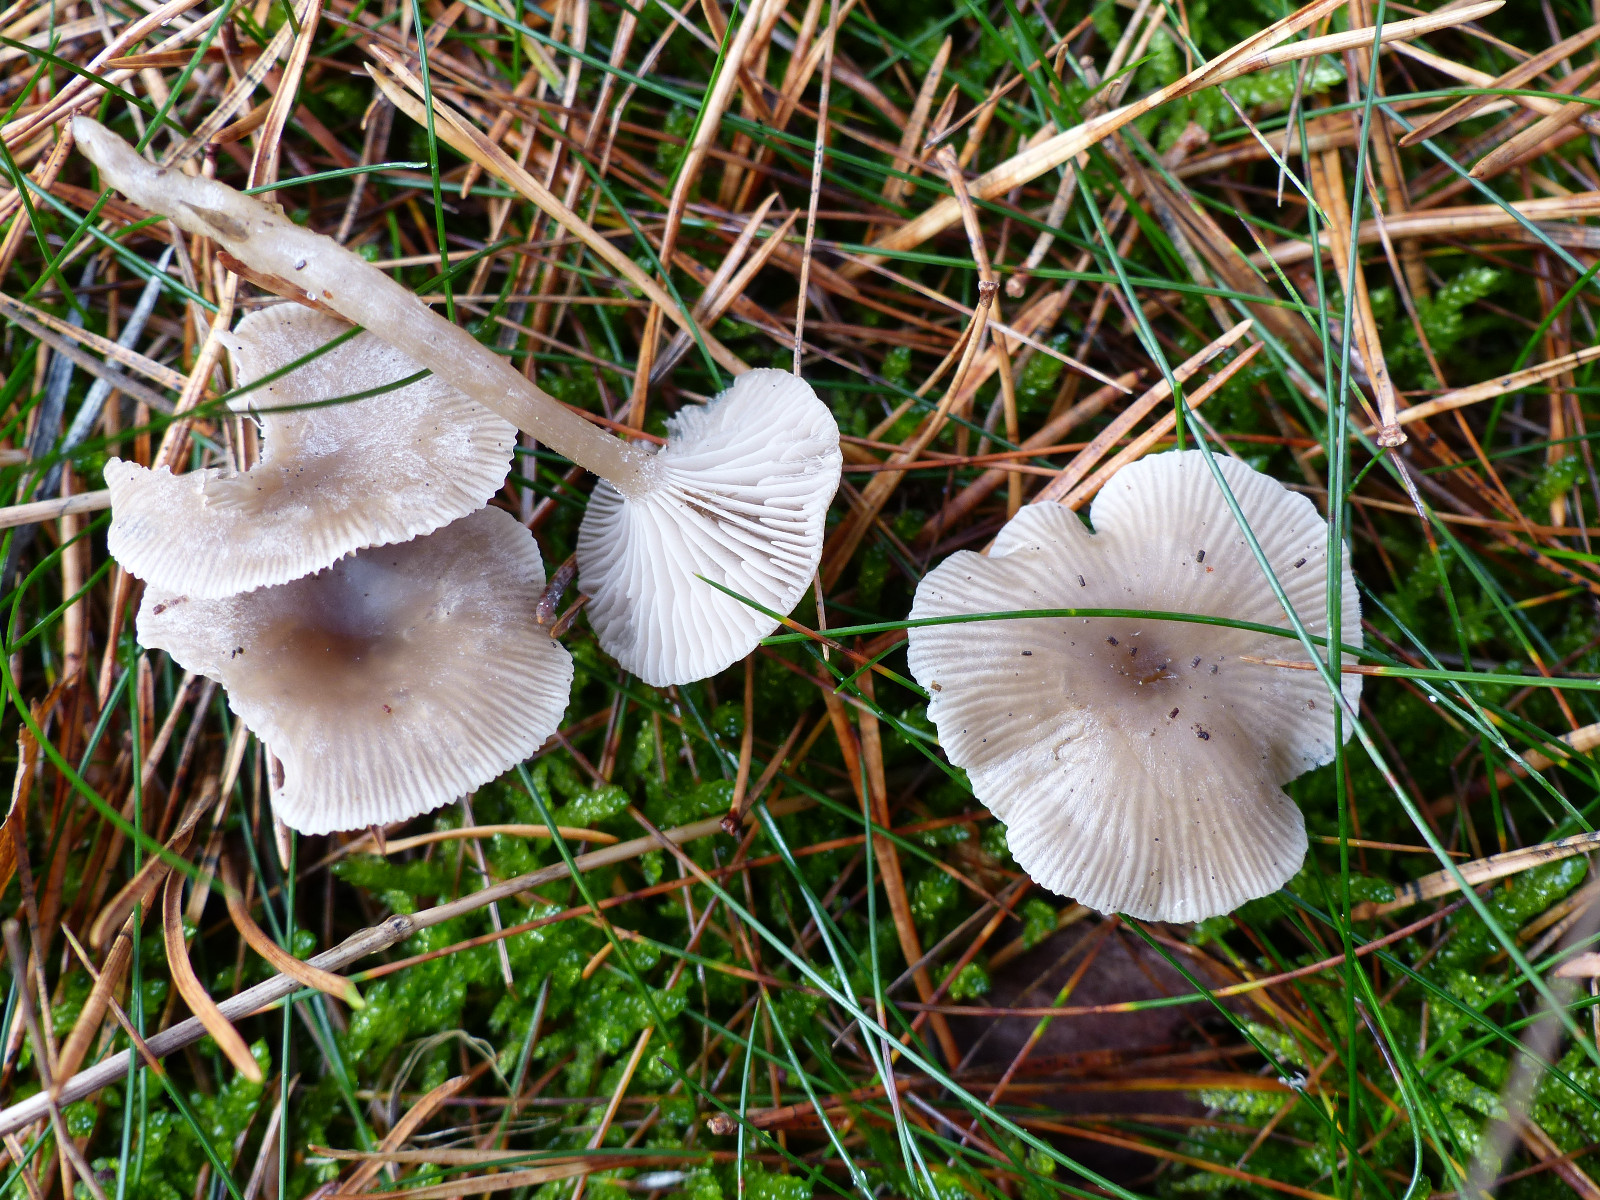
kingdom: Fungi
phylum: Basidiomycota
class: Agaricomycetes
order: Agaricales
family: Tricholomataceae
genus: Clitocybe
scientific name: Clitocybe
